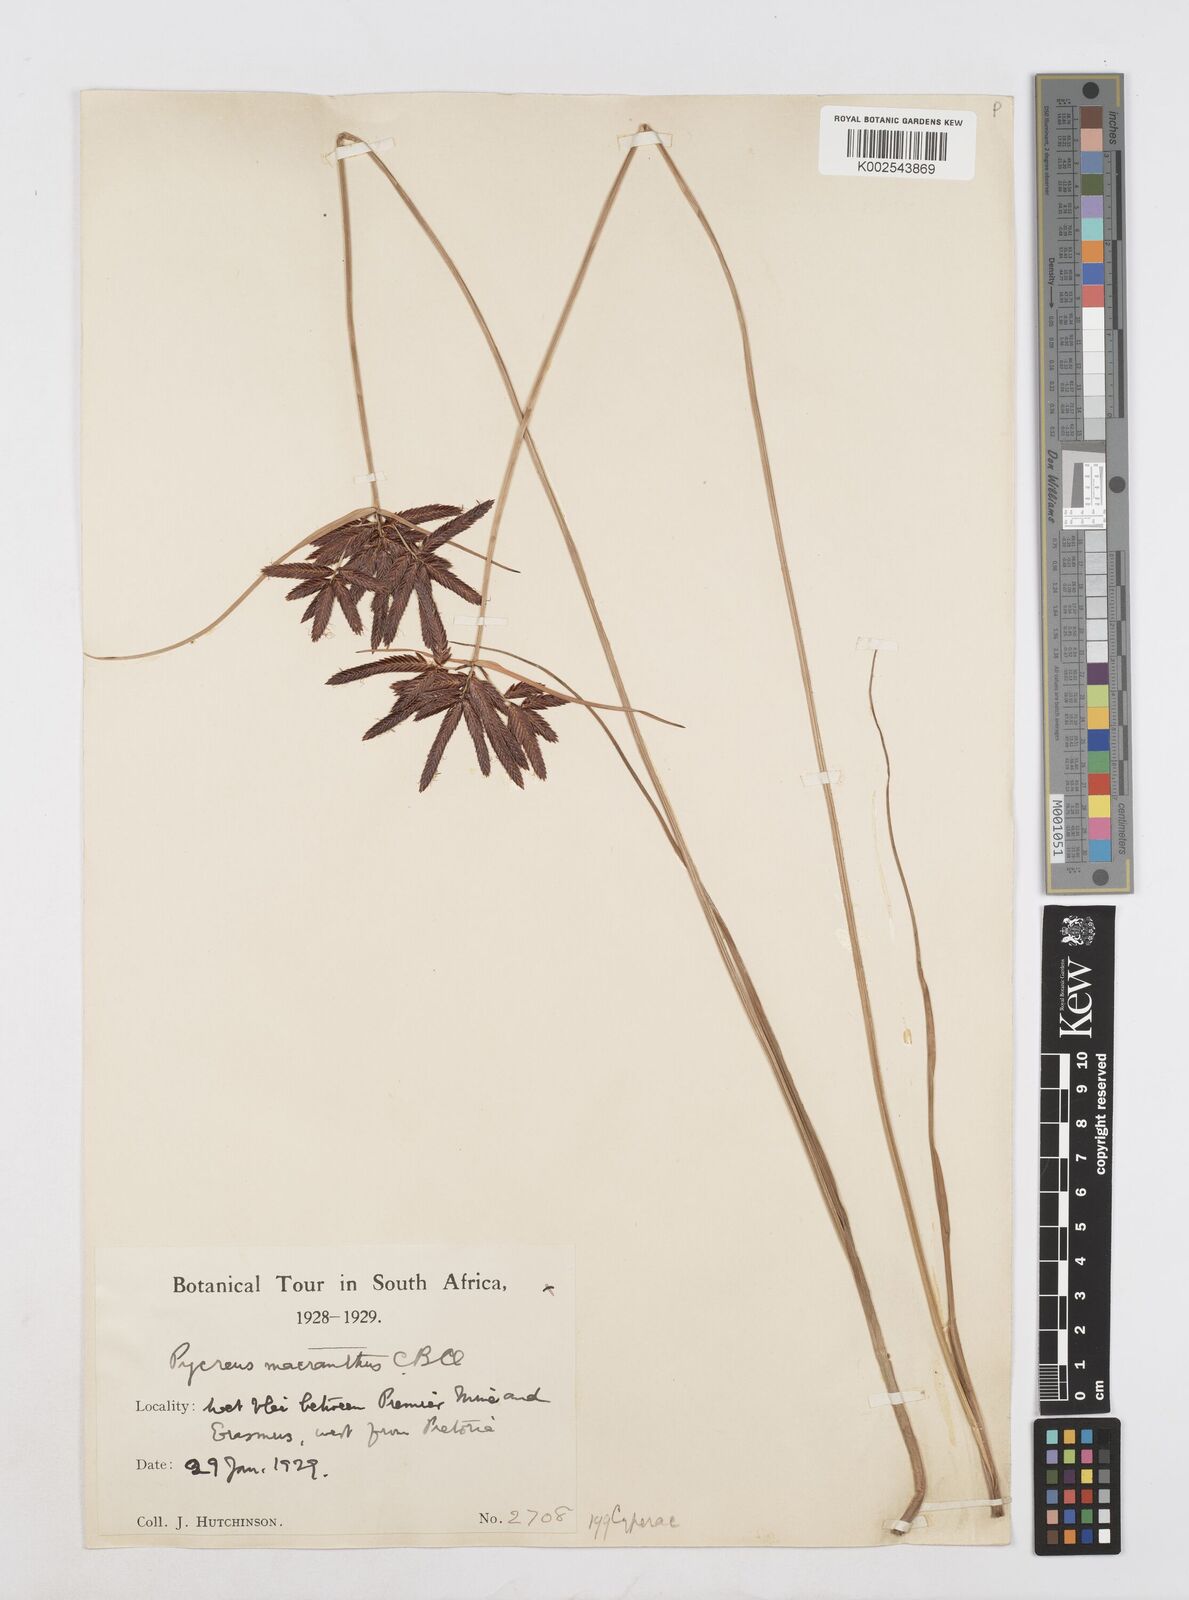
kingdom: Plantae
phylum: Tracheophyta
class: Liliopsida
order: Poales
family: Cyperaceae
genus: Cyperus
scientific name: Cyperus nigricans
